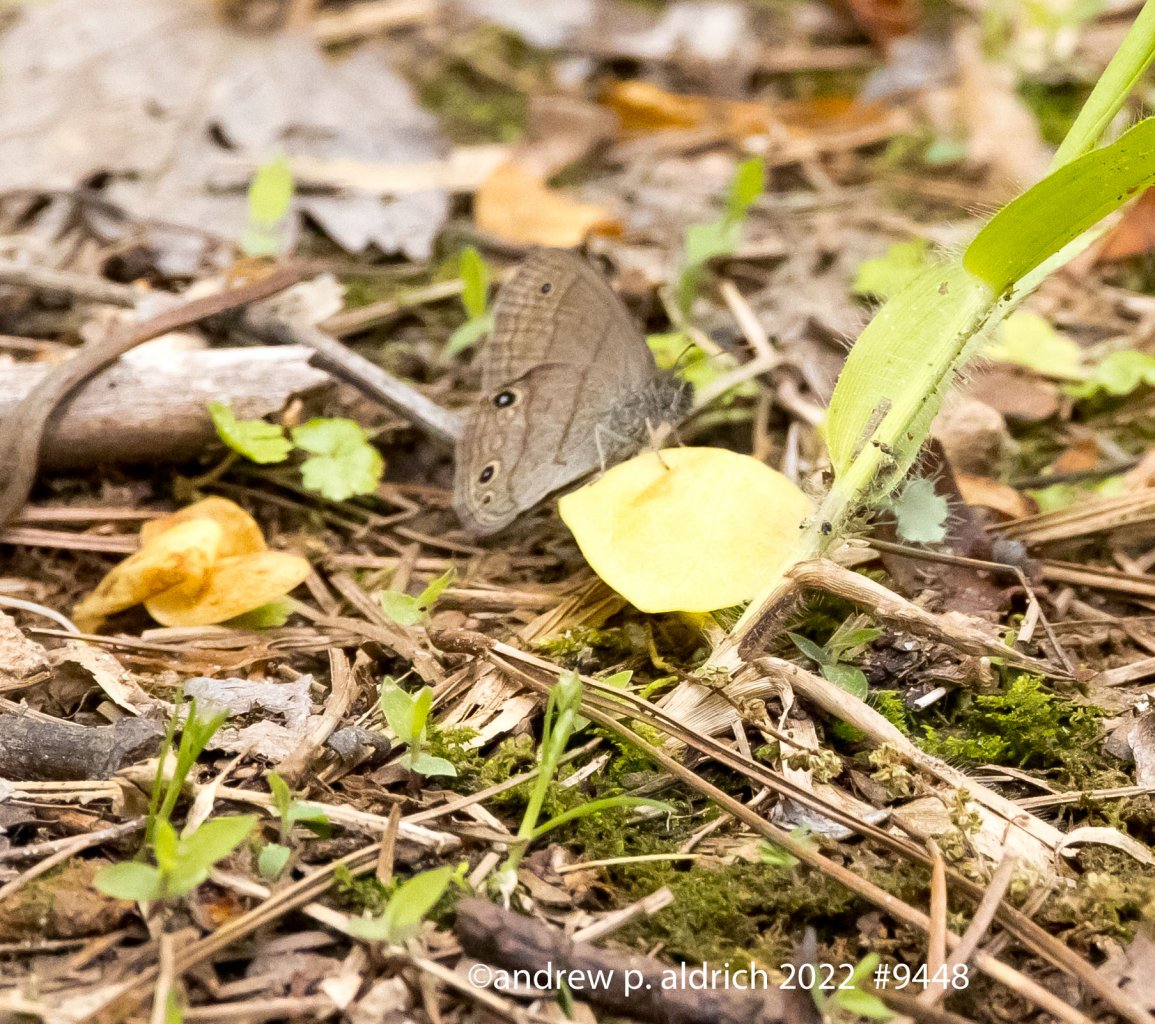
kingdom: Animalia
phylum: Arthropoda
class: Insecta
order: Lepidoptera
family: Nymphalidae
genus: Hermeuptychia
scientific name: Hermeuptychia hermes
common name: Carolina Satyr
